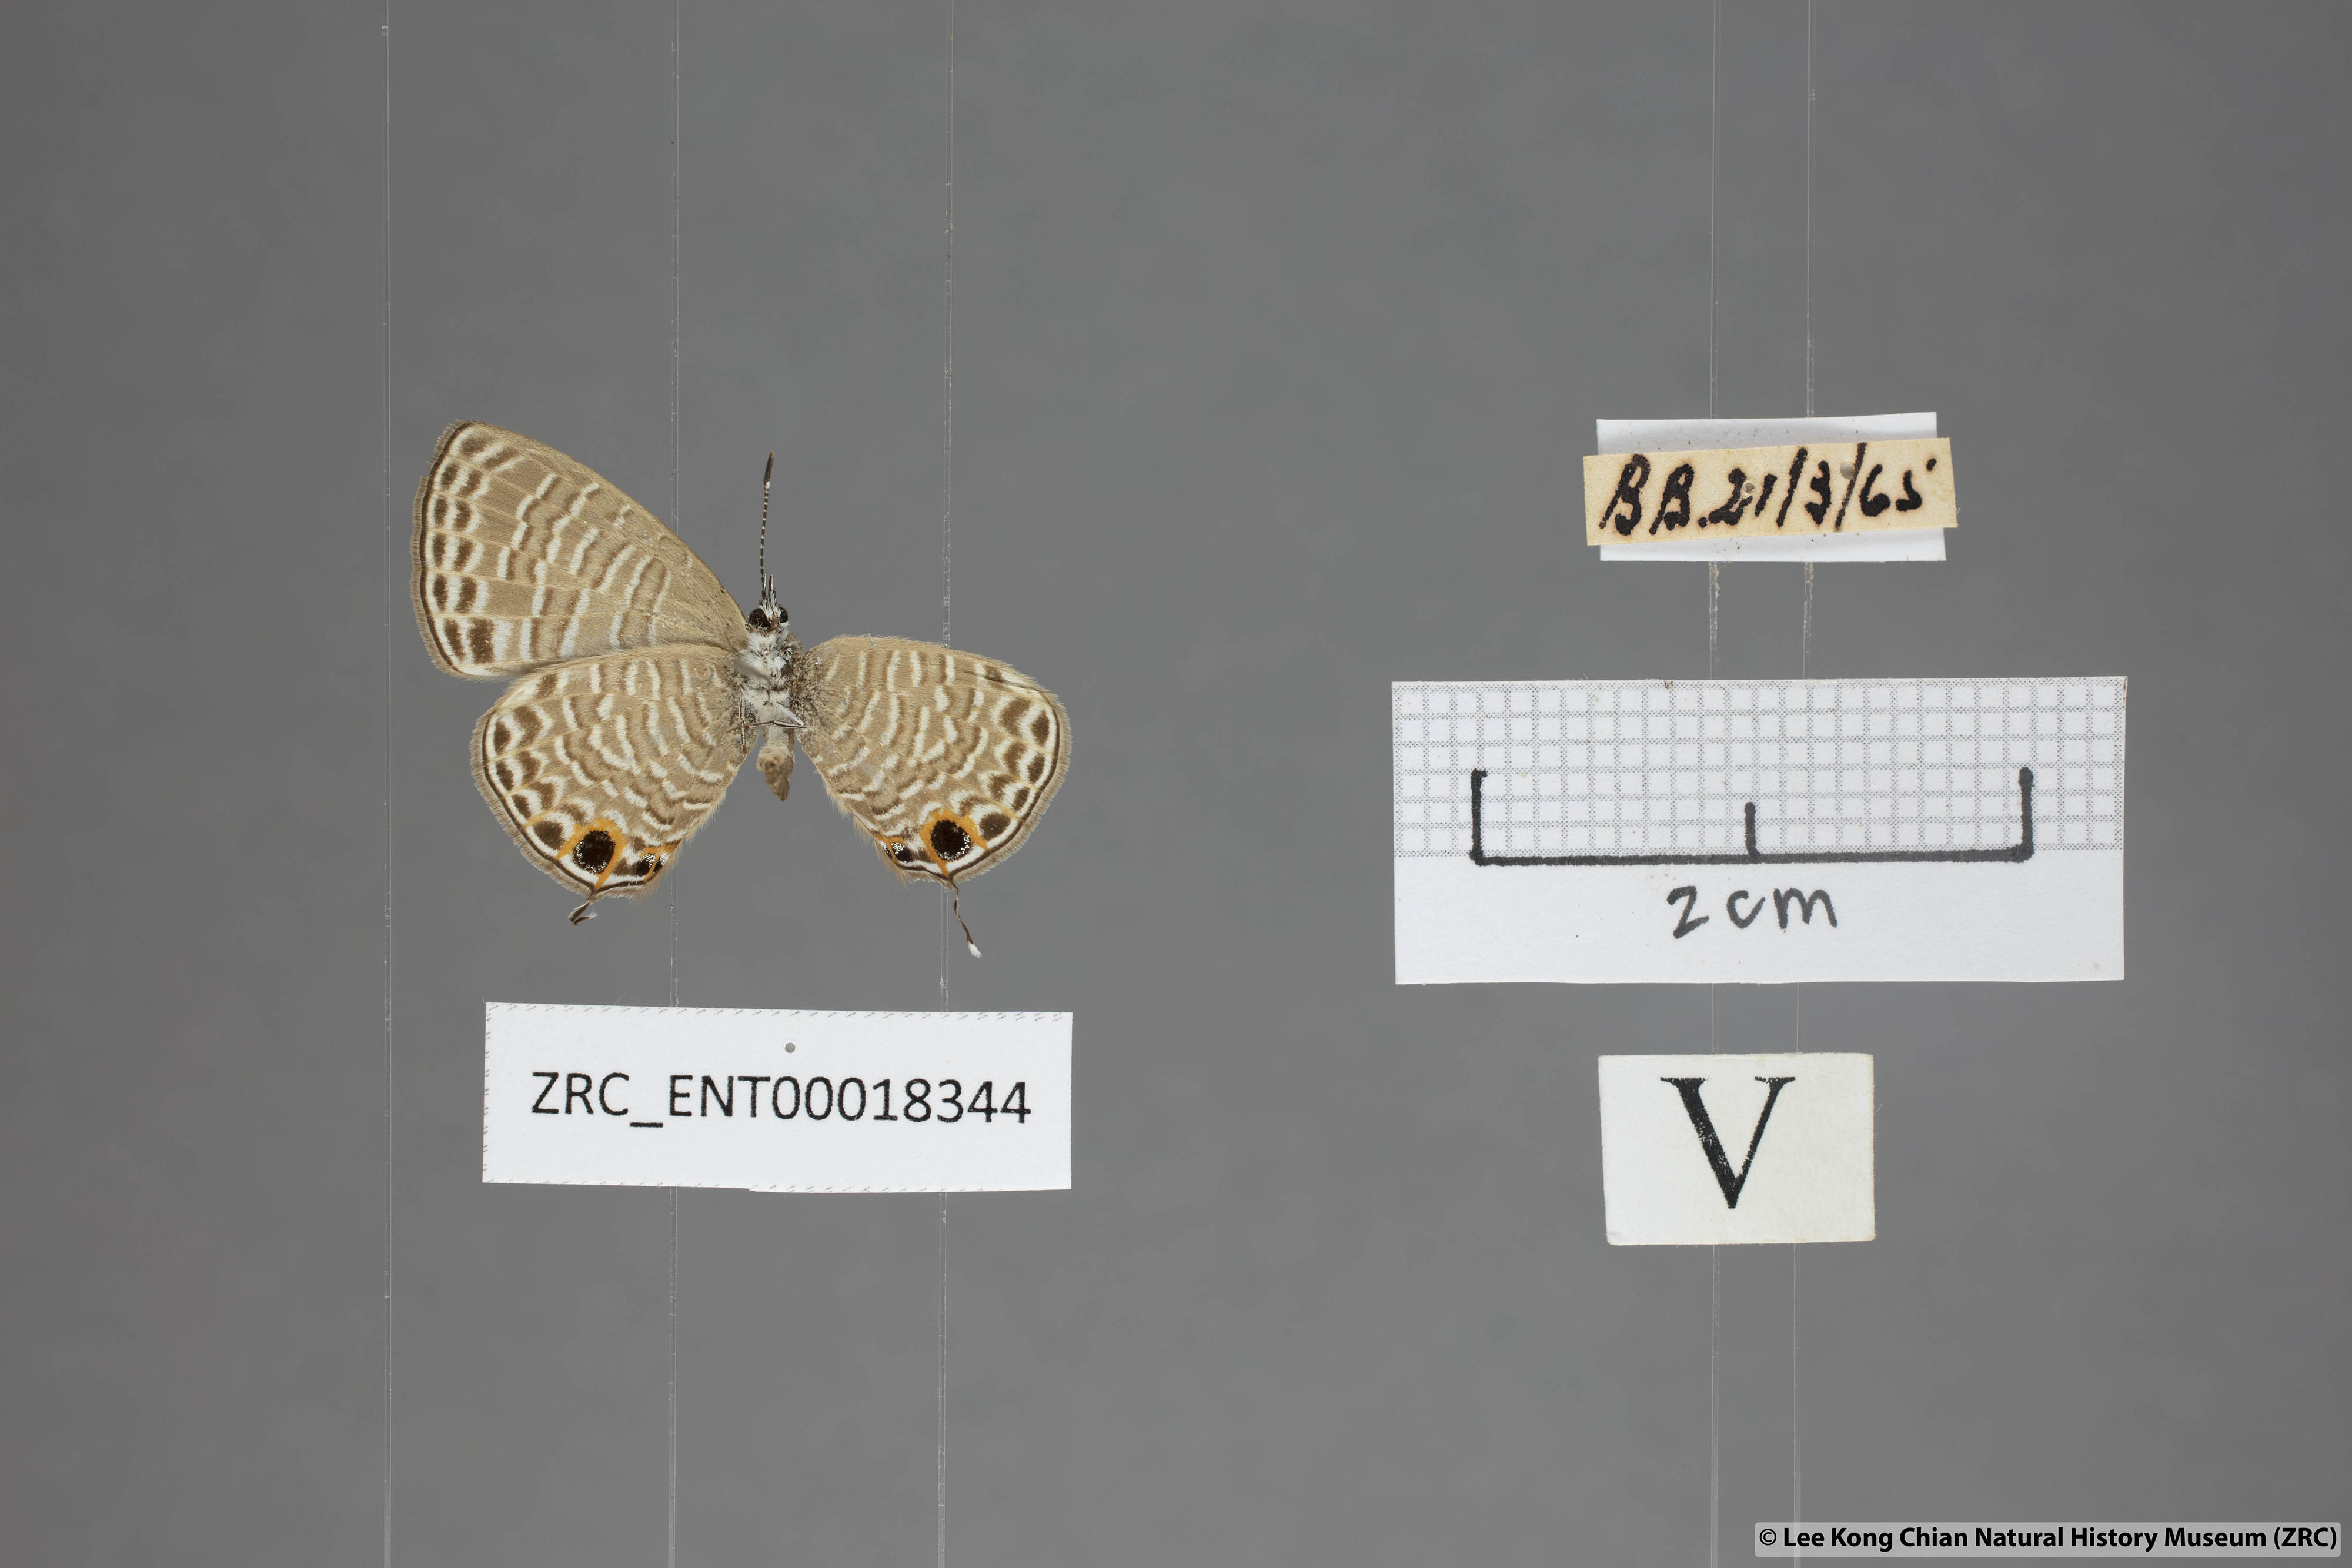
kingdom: Animalia
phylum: Arthropoda
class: Insecta
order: Lepidoptera
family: Lycaenidae
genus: Nacaduba
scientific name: Nacaduba calauria
